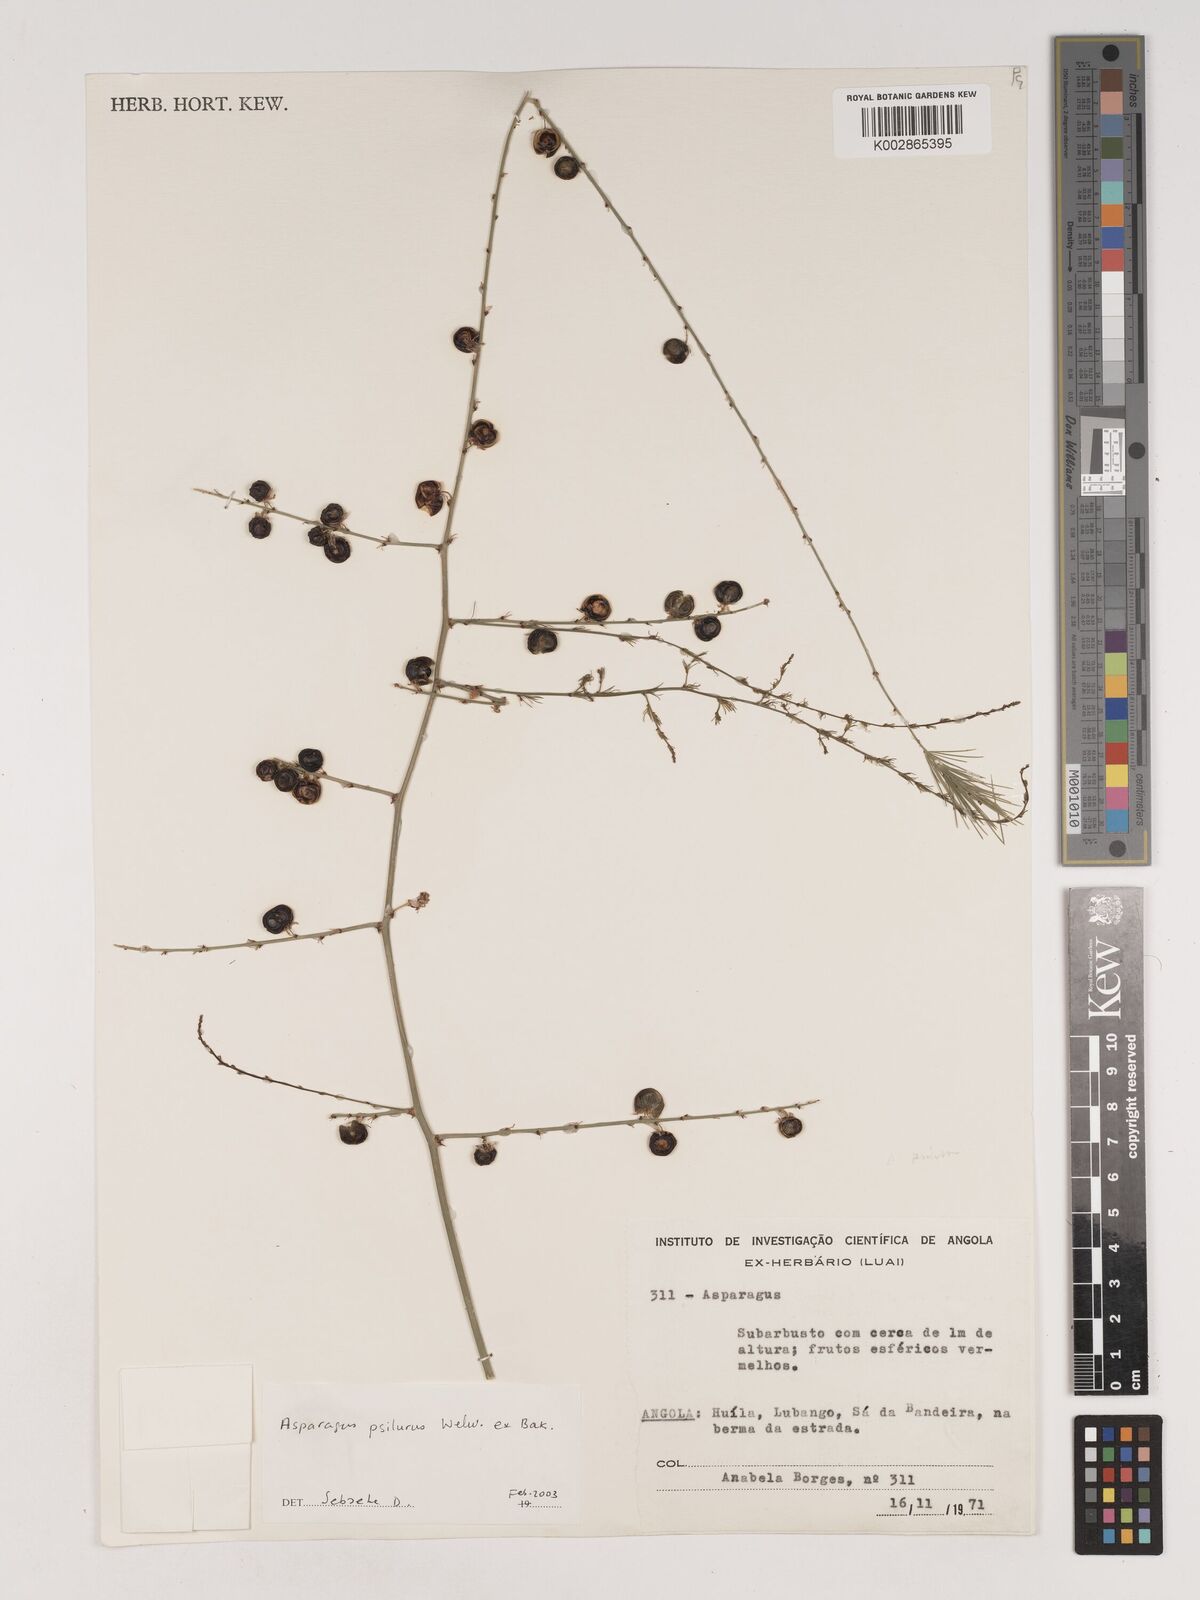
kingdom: Plantae
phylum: Tracheophyta
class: Liliopsida
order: Asparagales
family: Asparagaceae
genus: Asparagus
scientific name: Asparagus psilurus
